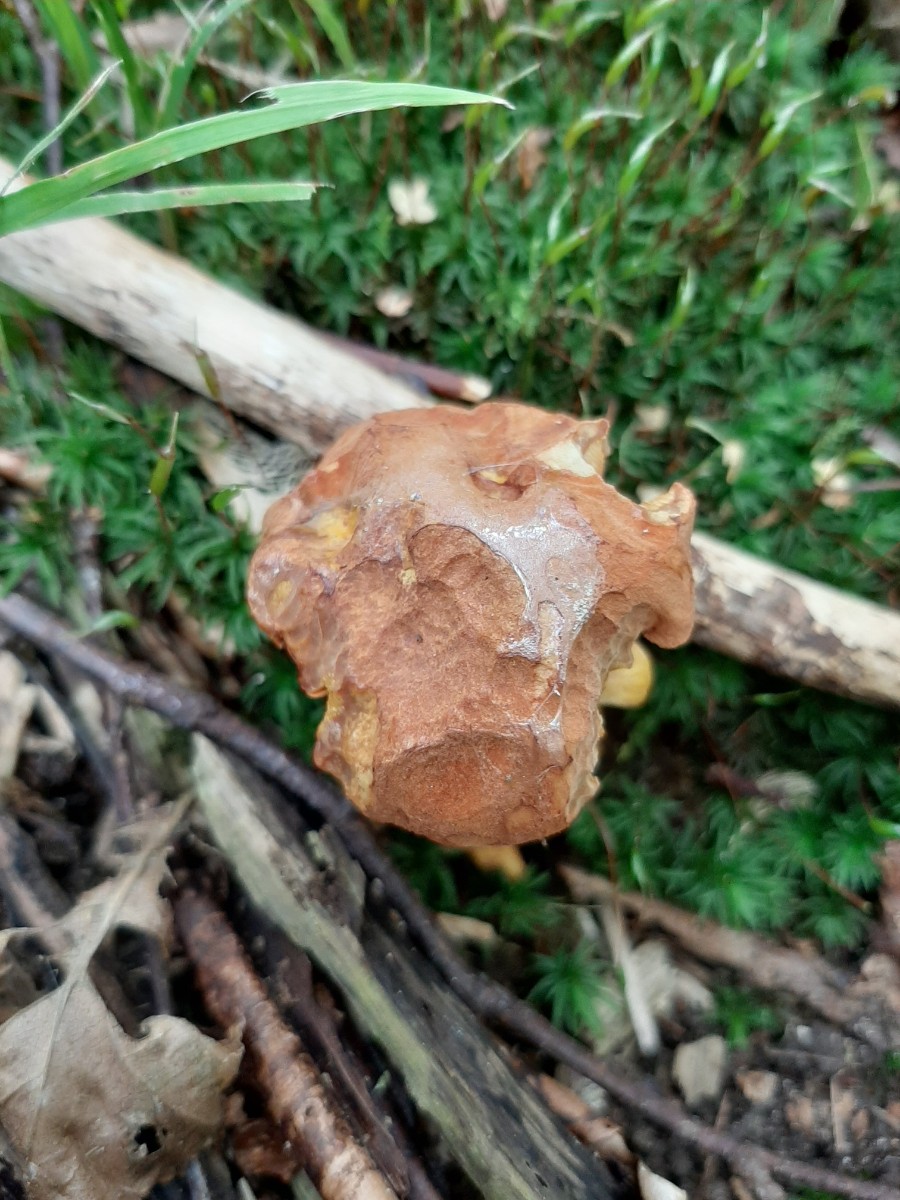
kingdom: Fungi
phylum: Basidiomycota
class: Agaricomycetes
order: Boletales
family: Boletaceae
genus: Chalciporus
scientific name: Chalciporus piperatus
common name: peberrørhat
